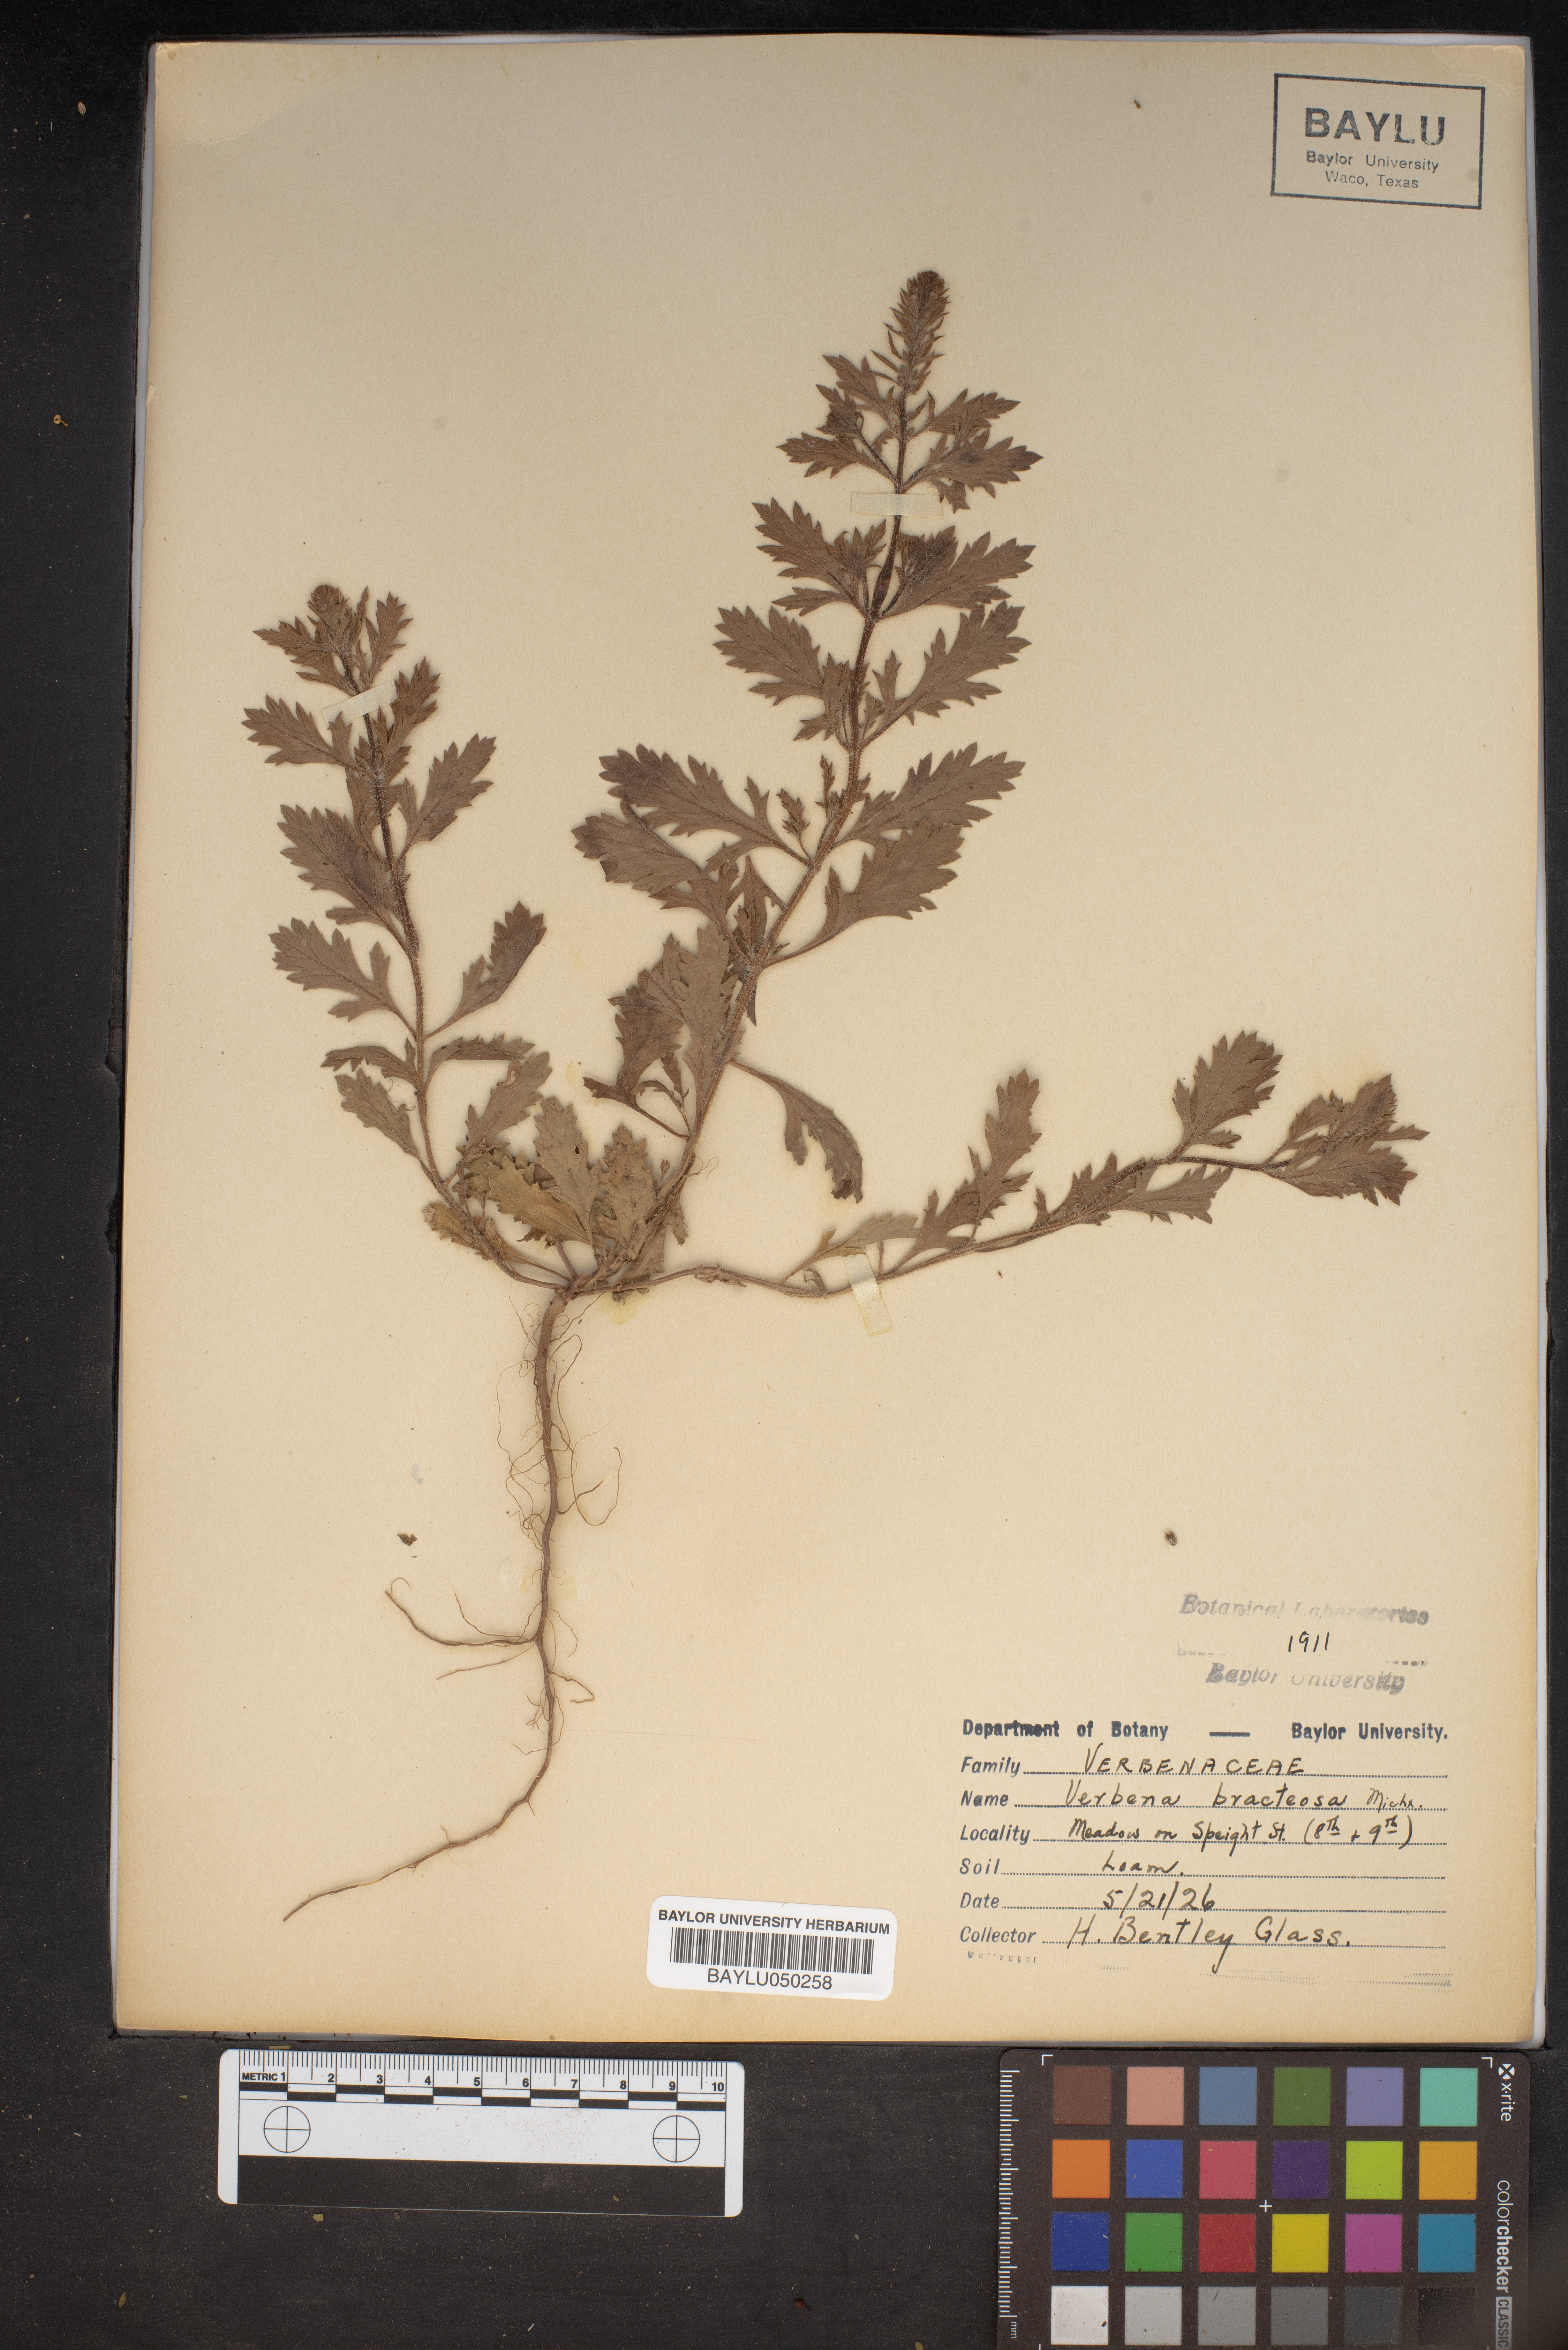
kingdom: Plantae
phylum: Tracheophyta
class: Magnoliopsida
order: Lamiales
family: Verbenaceae
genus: Verbena
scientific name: Verbena bracteata
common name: Bracted vervain
